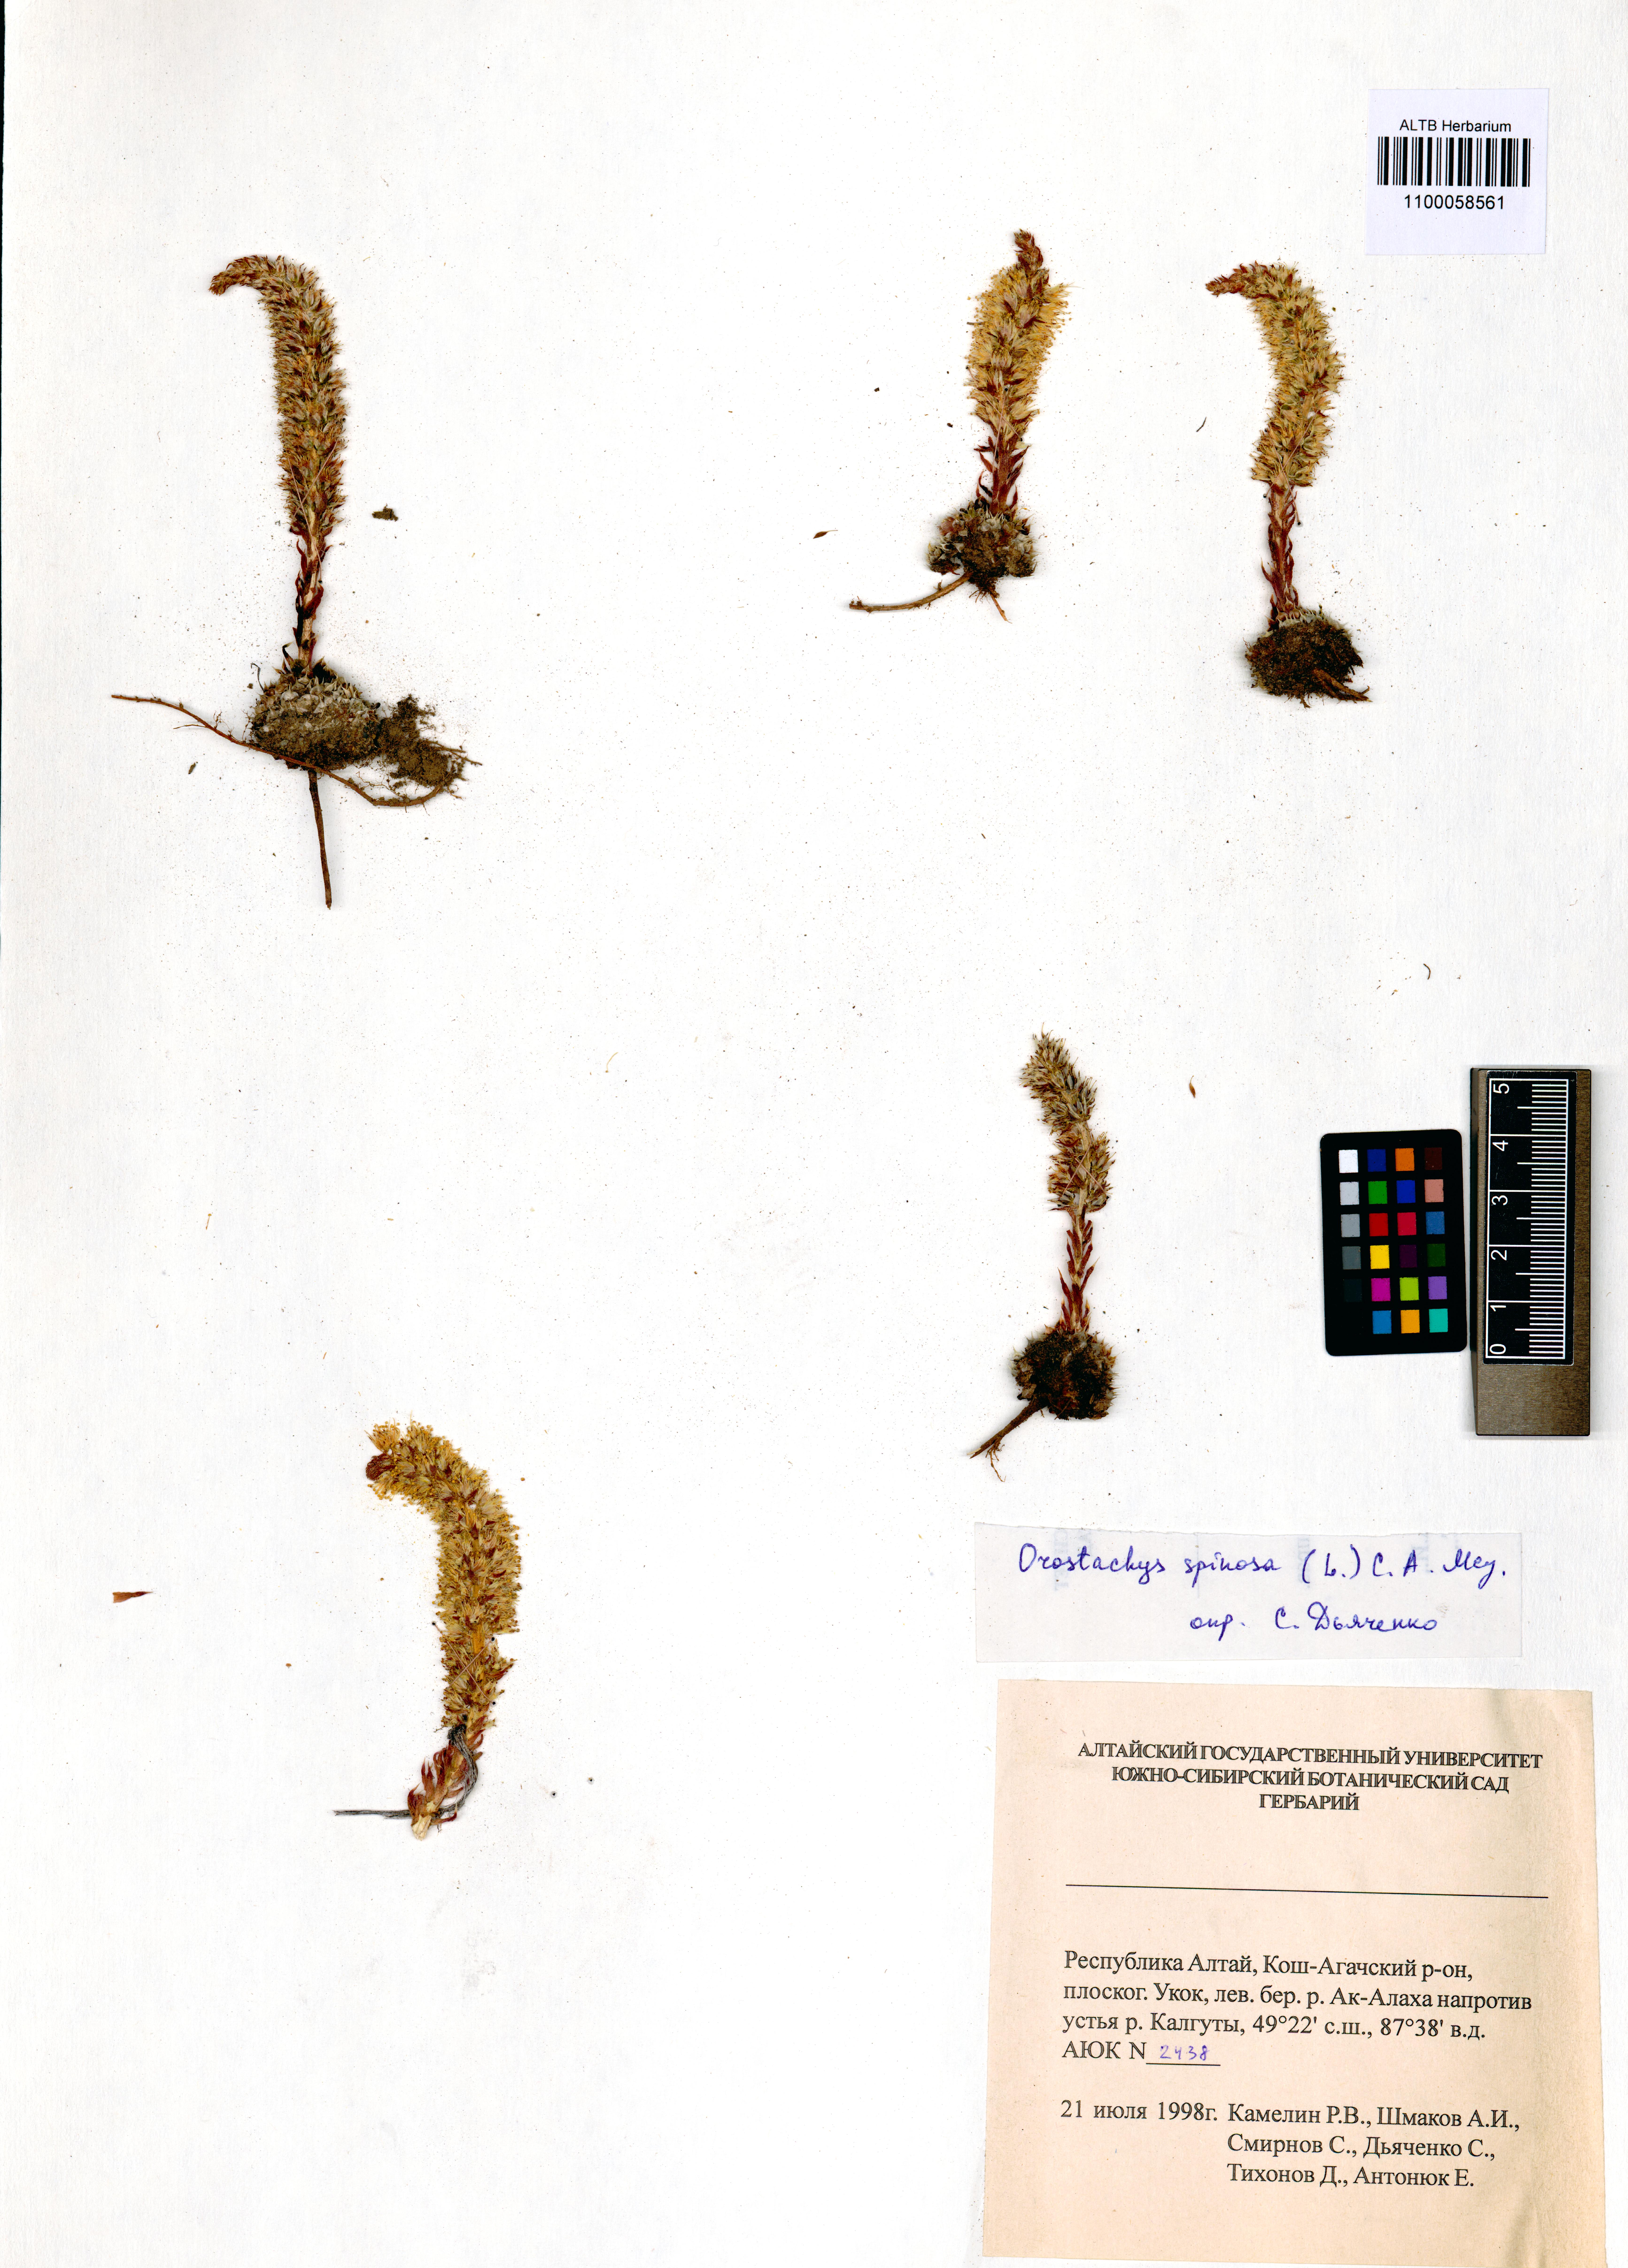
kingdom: Plantae
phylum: Tracheophyta
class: Magnoliopsida
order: Saxifragales
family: Crassulaceae
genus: Orostachys
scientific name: Orostachys spinosa
